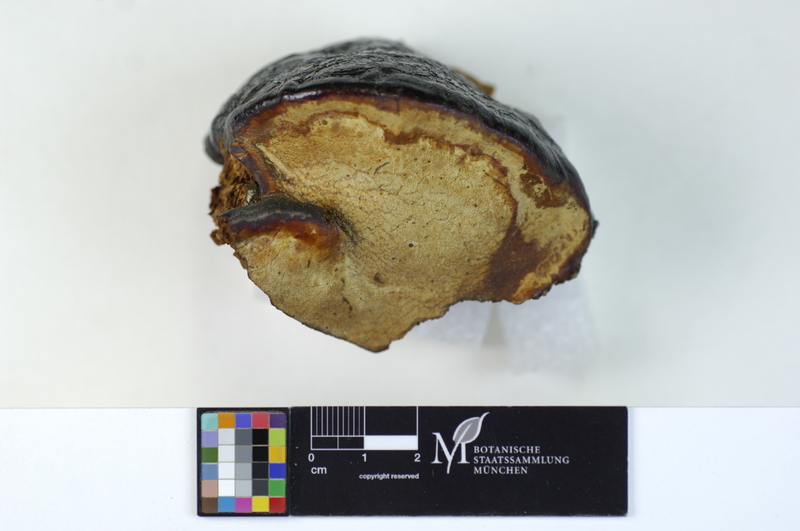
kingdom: Plantae
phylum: Tracheophyta
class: Magnoliopsida
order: Fagales
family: Fagaceae
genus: Fagus
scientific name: Fagus sylvatica
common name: Beech
